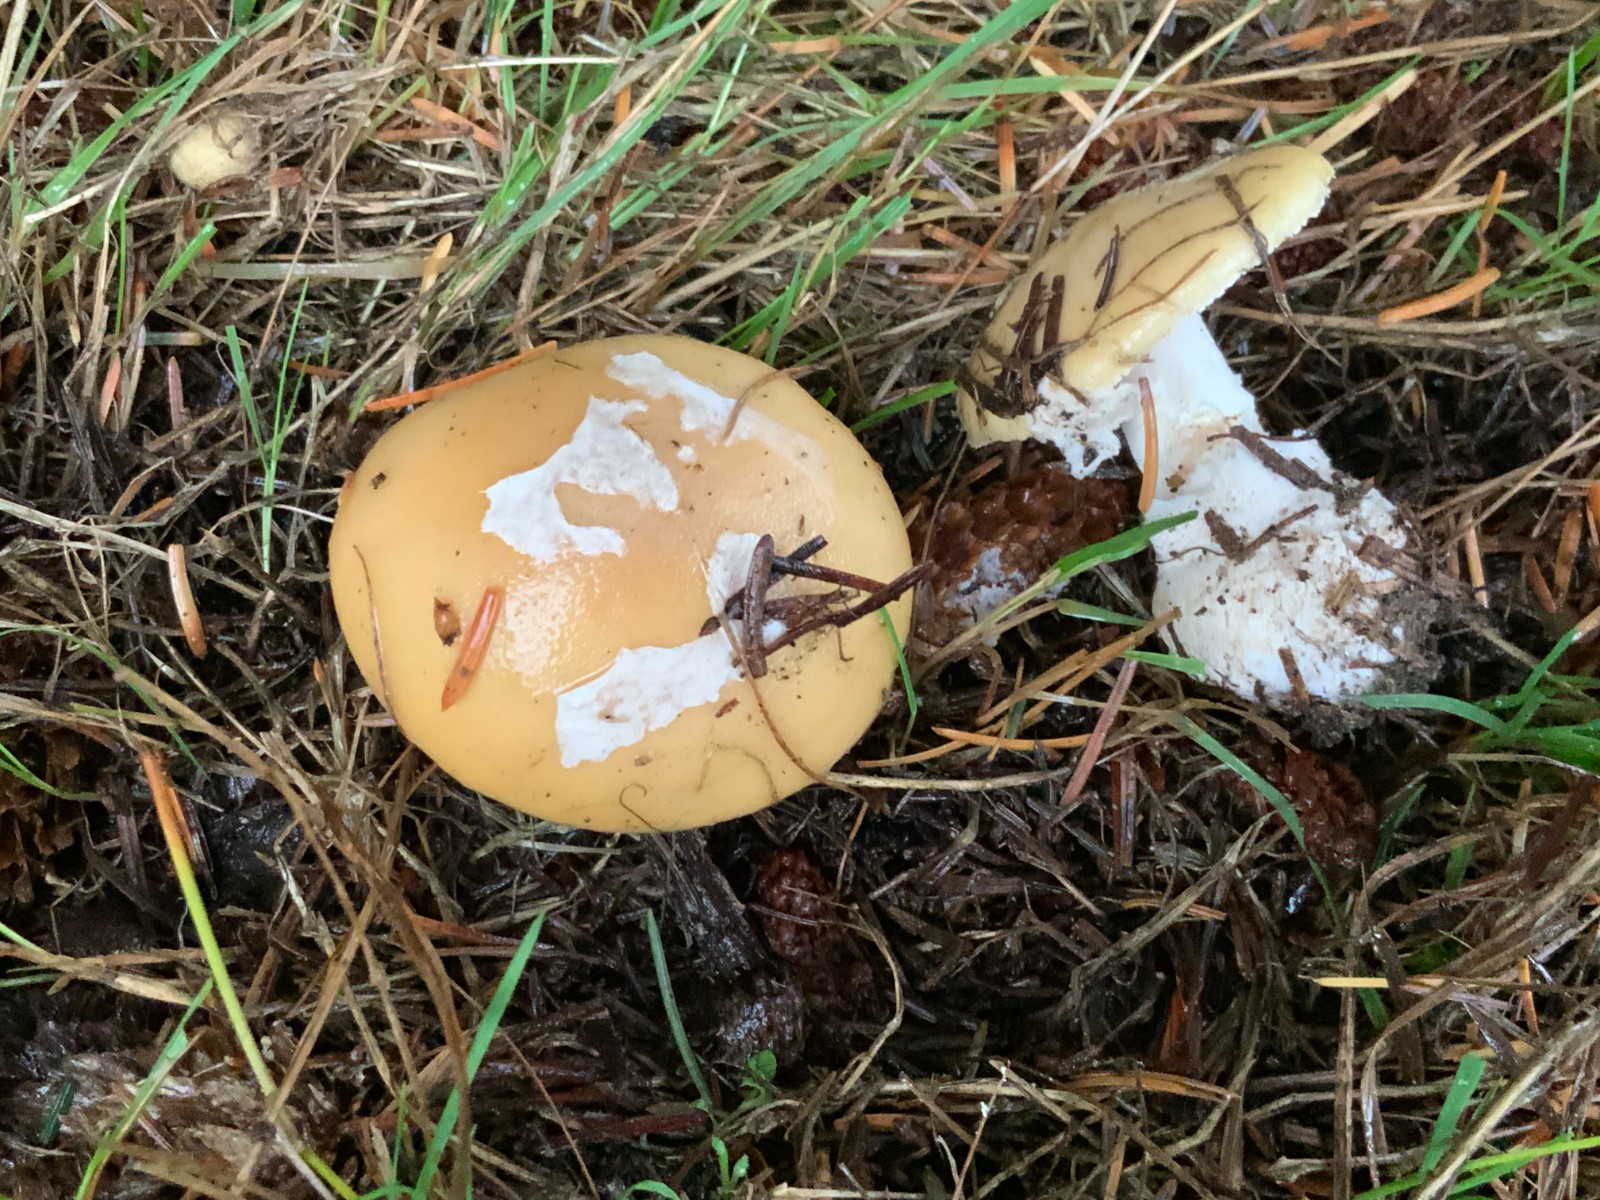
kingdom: Fungi
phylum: Basidiomycota
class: Agaricomycetes
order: Agaricales
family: Amanitaceae
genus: Amanita
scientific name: Amanita gemmata
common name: okkergul fluesvamp
